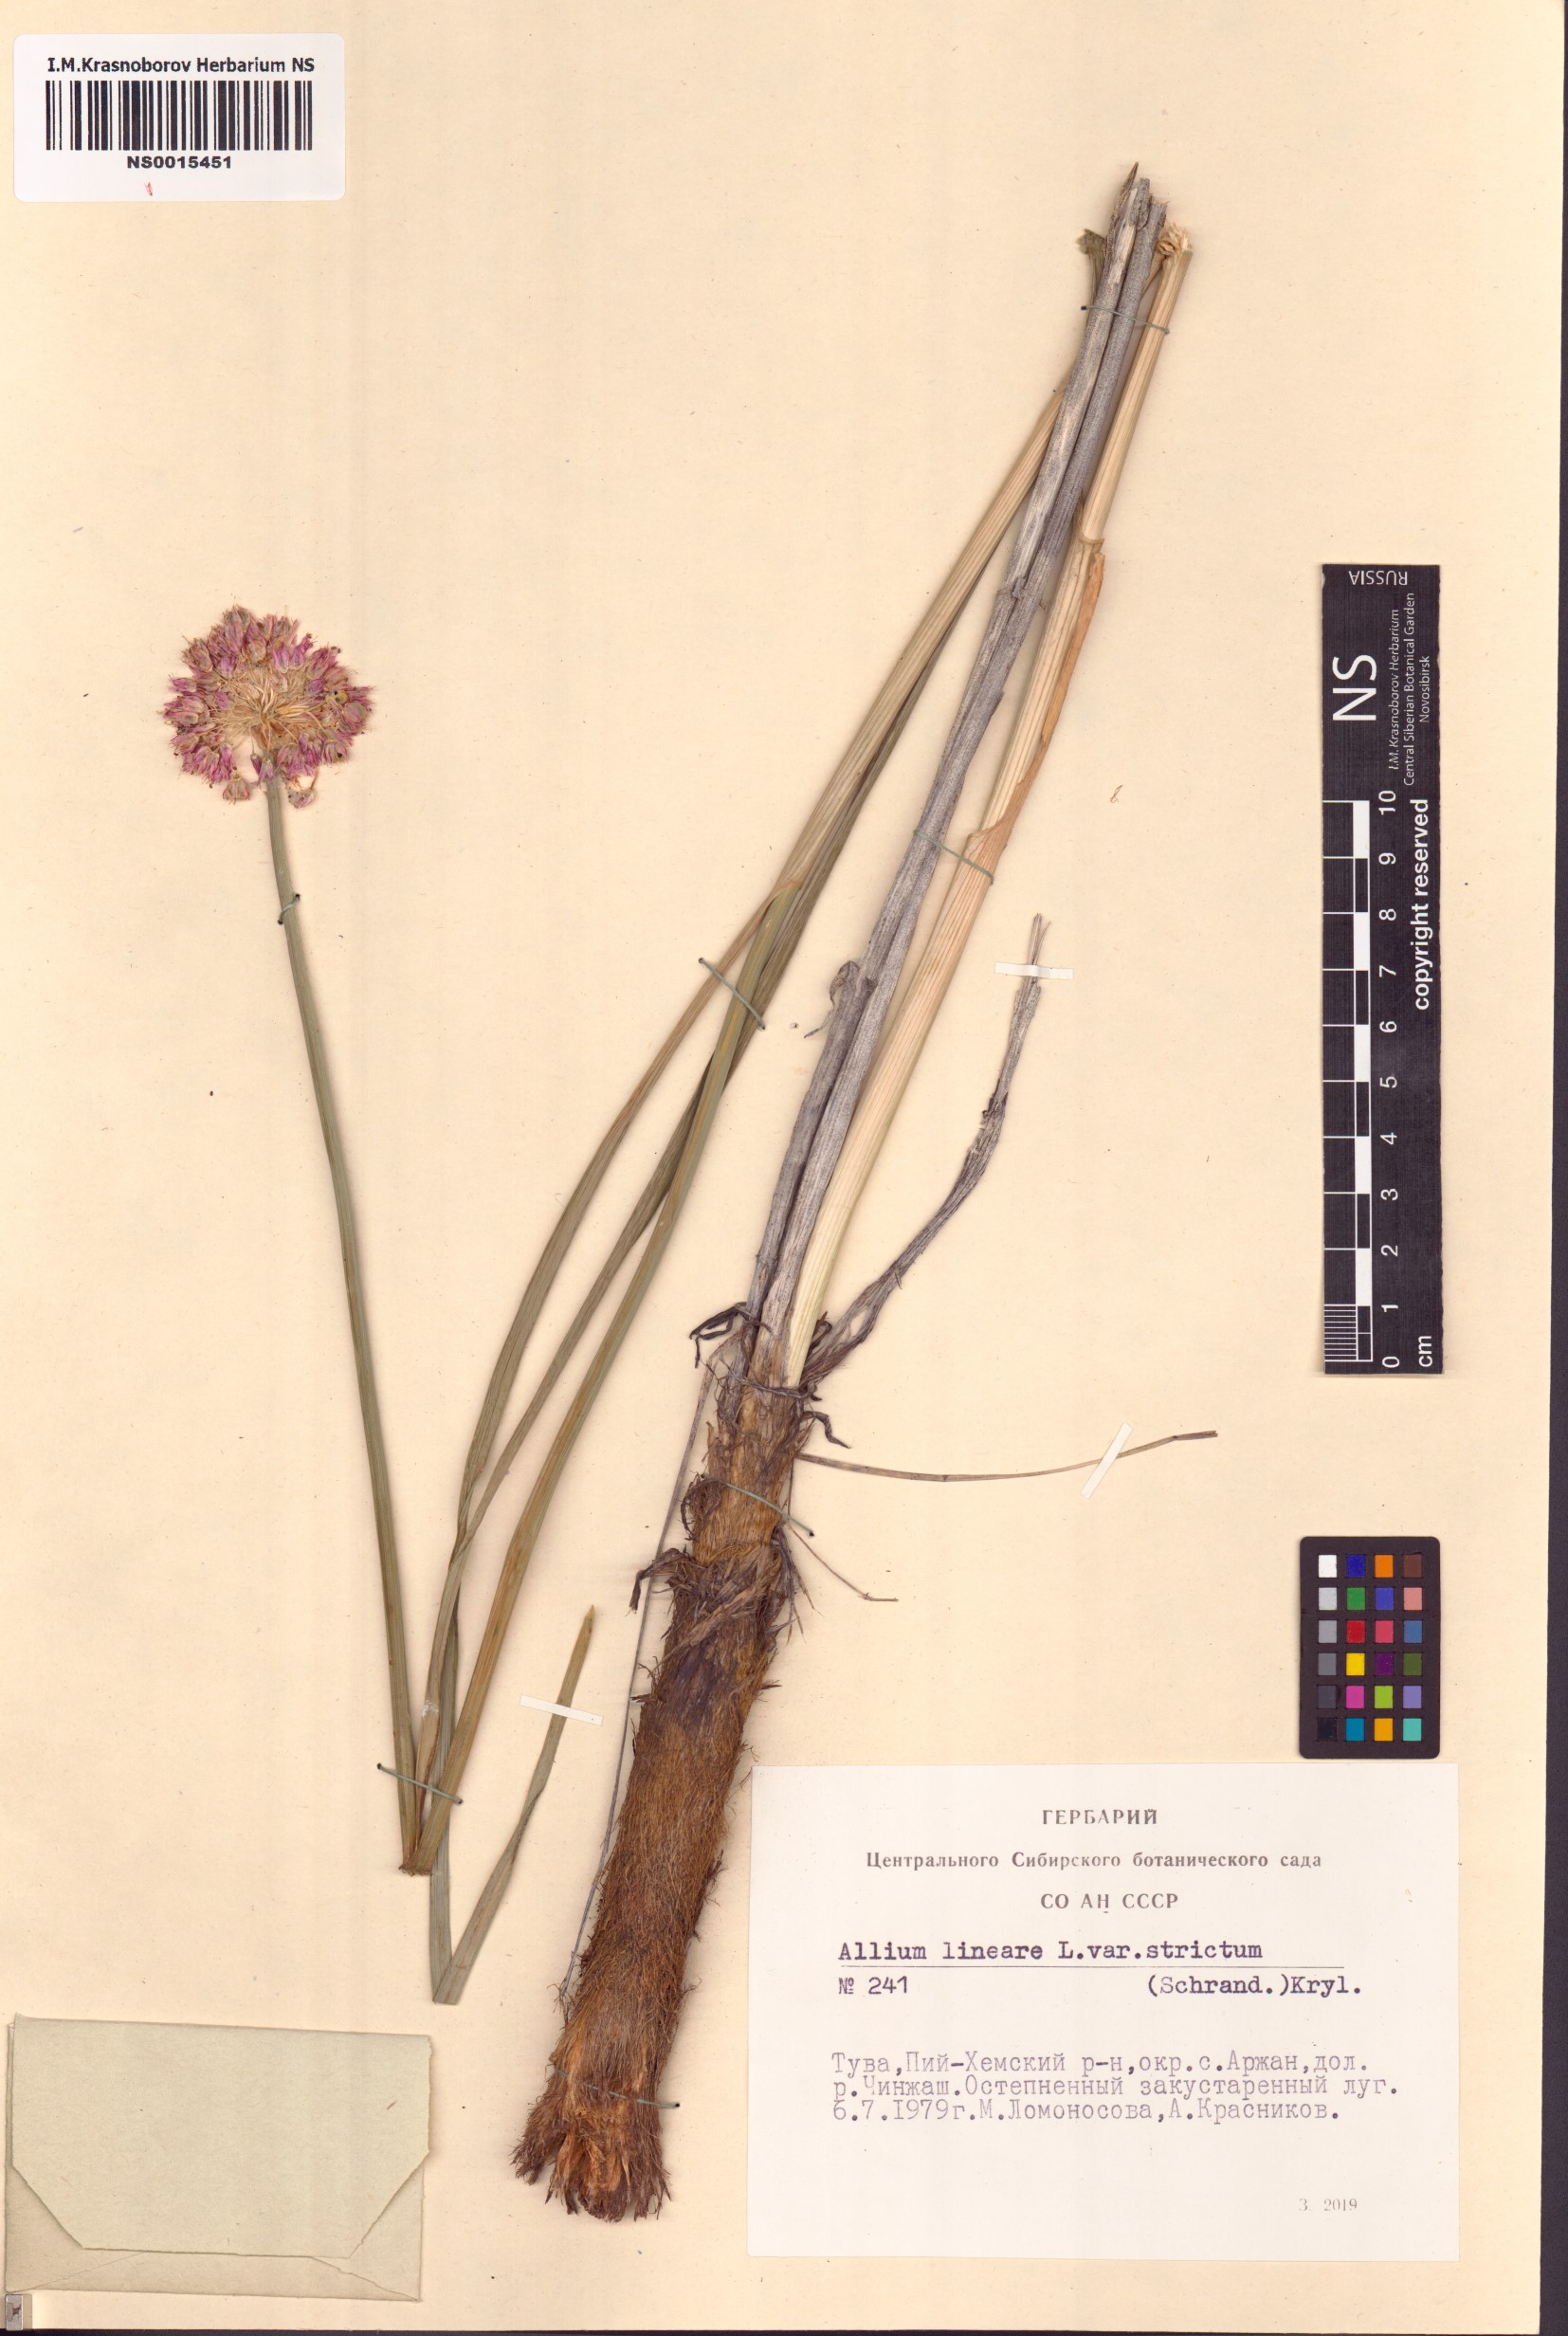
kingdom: Plantae
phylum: Tracheophyta
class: Liliopsida
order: Asparagales
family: Amaryllidaceae
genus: Allium
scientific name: Allium strictum
